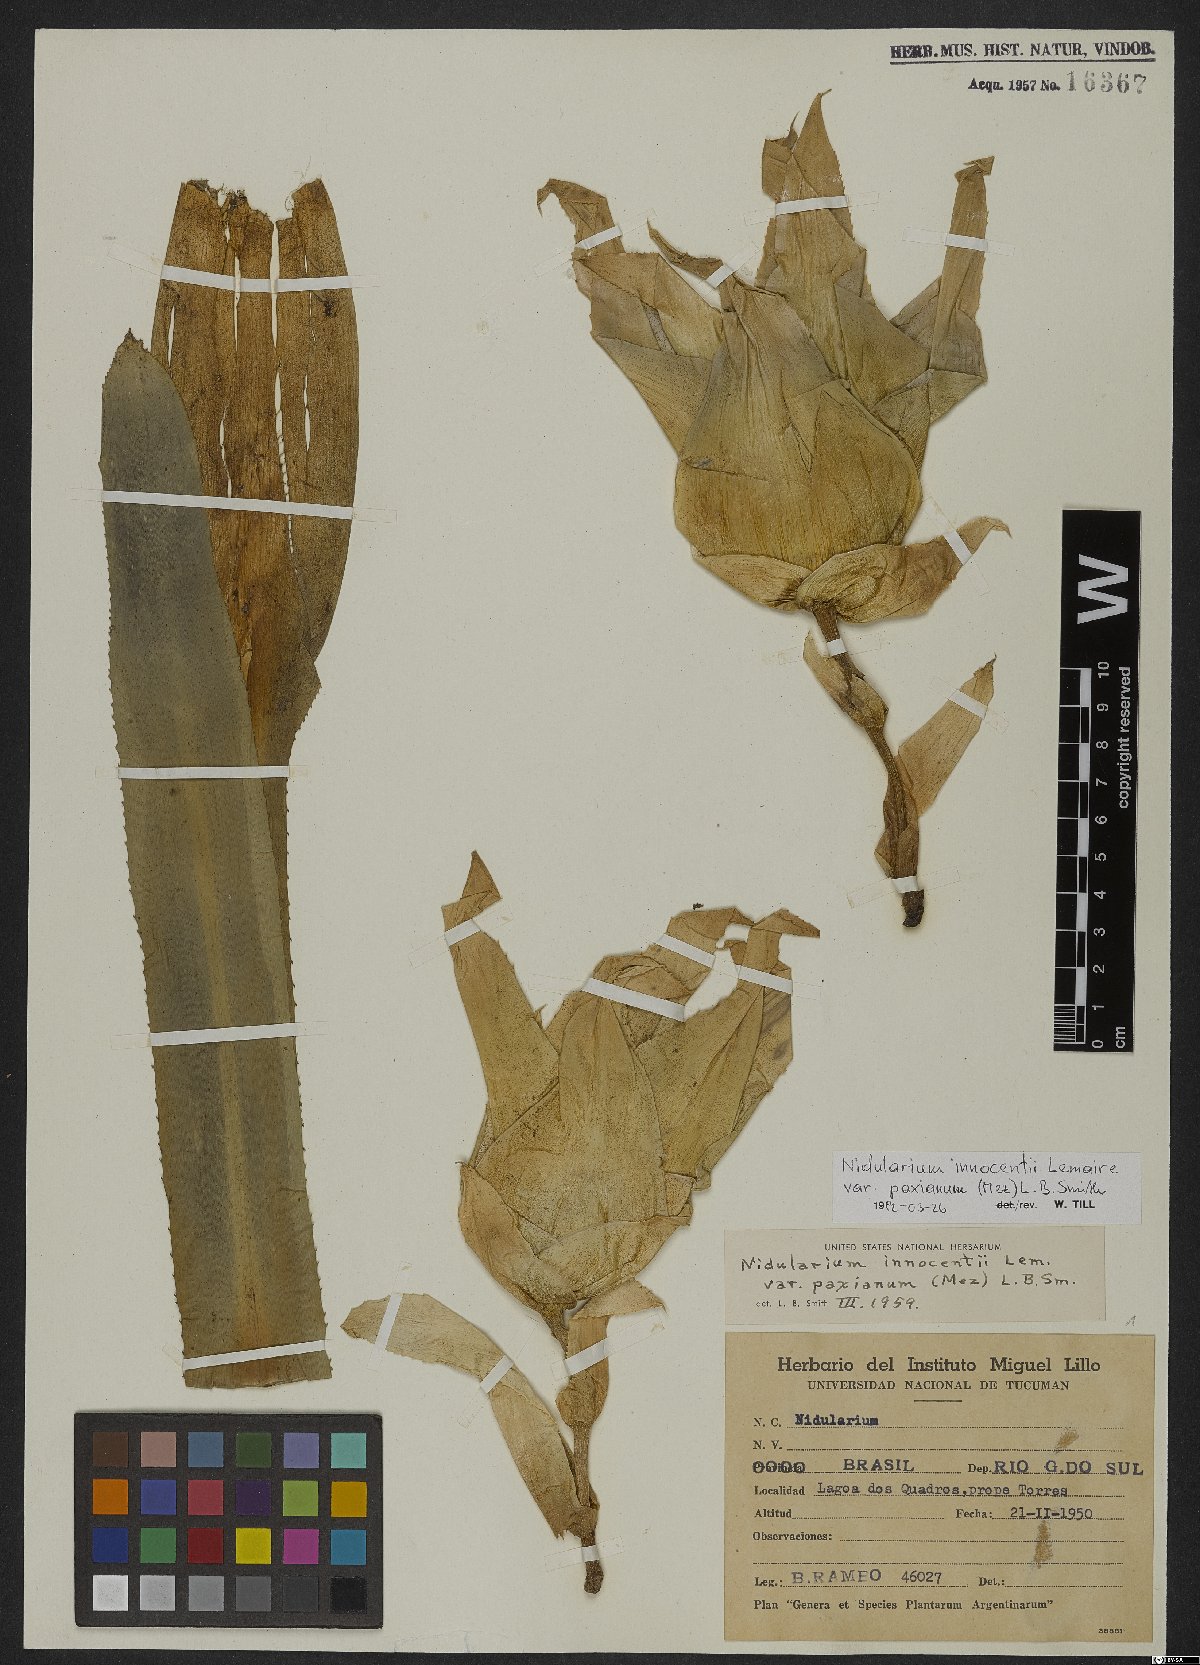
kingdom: Plantae
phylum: Tracheophyta
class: Liliopsida
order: Poales
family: Bromeliaceae
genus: Nidularium
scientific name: Nidularium innocentii
